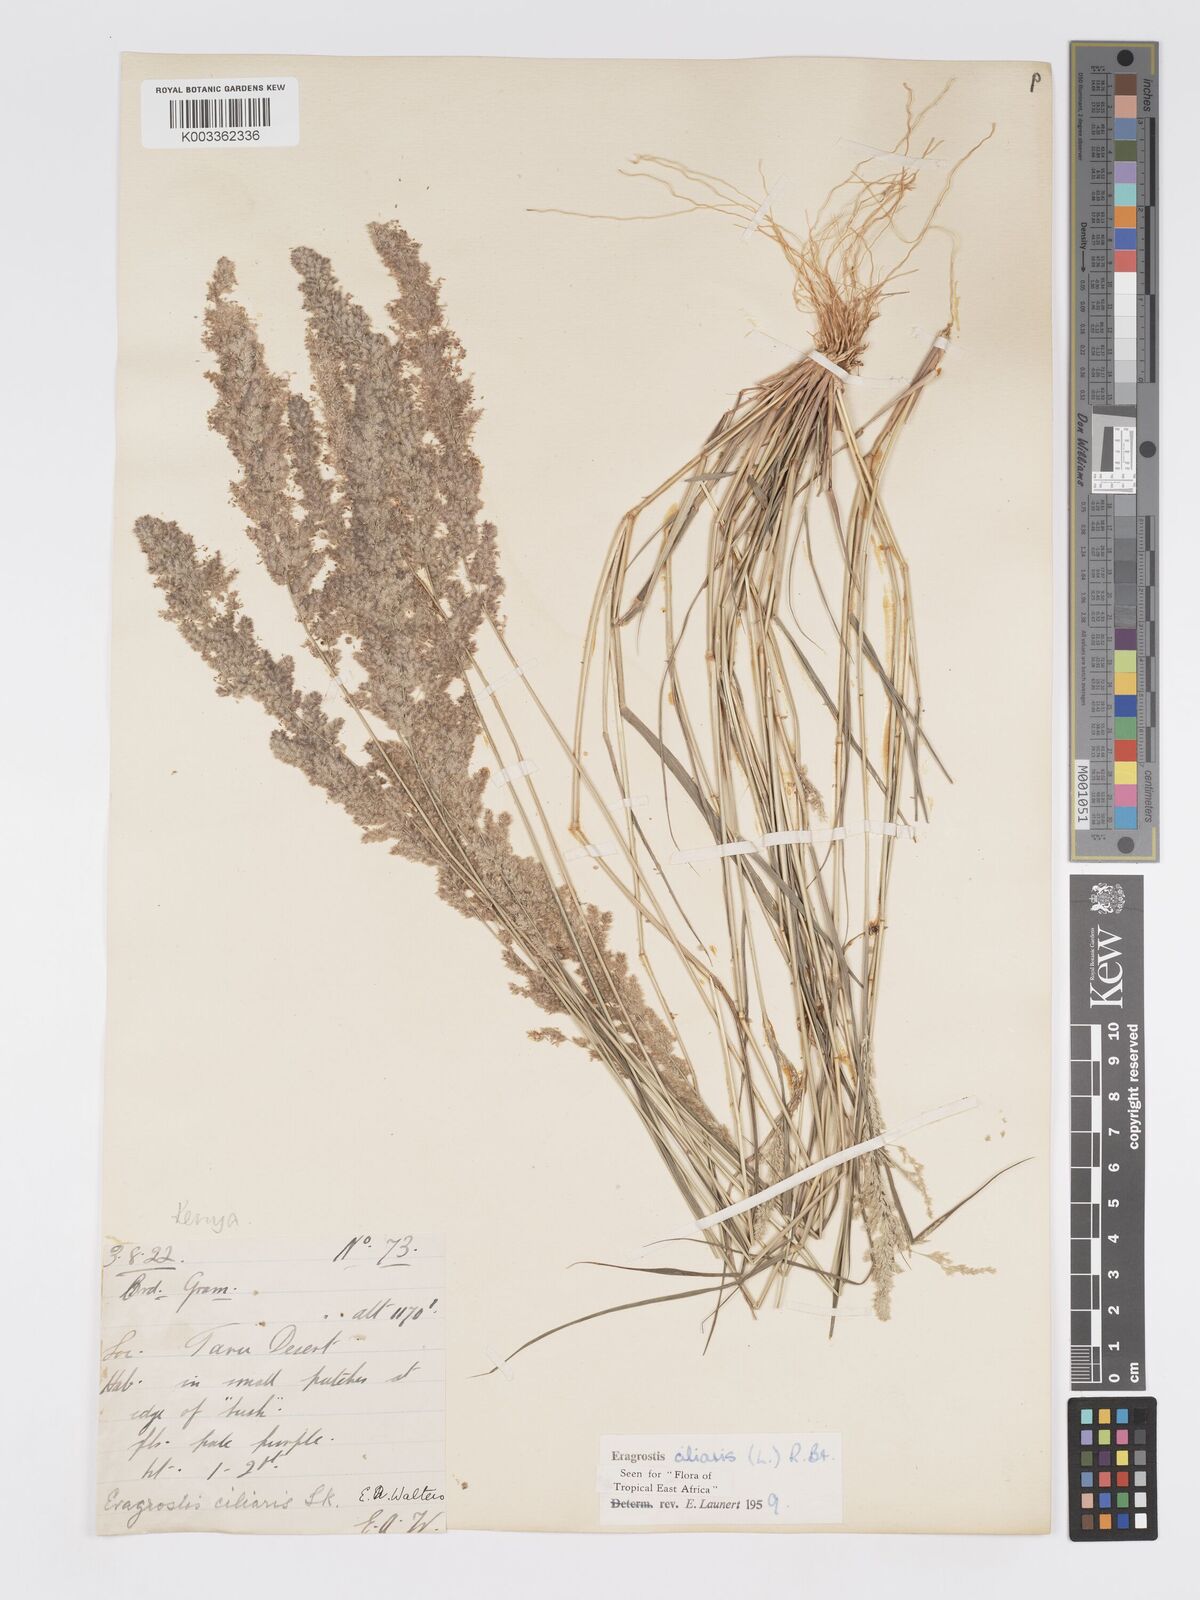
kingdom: Plantae
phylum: Tracheophyta
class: Liliopsida
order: Poales
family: Poaceae
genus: Eragrostis
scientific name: Eragrostis ciliaris
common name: Gophertail lovegrass
